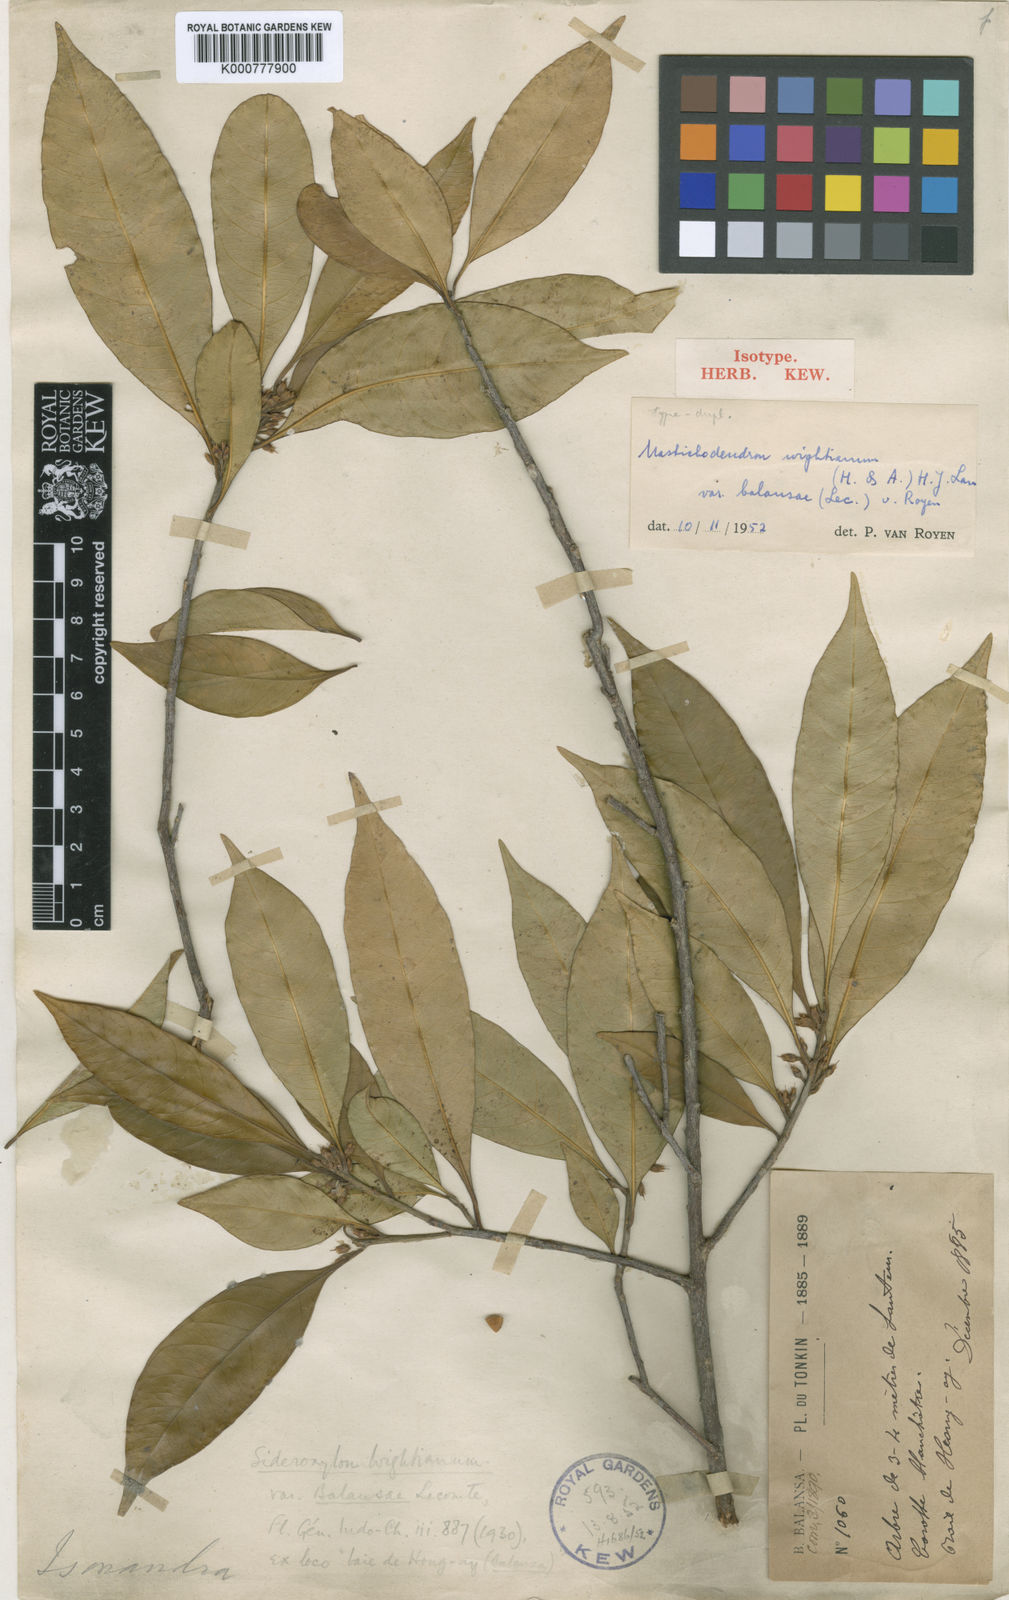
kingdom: Plantae
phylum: Tracheophyta
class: Magnoliopsida
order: Ericales
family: Sapotaceae
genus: Sideroxylon
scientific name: Sideroxylon wightianum
